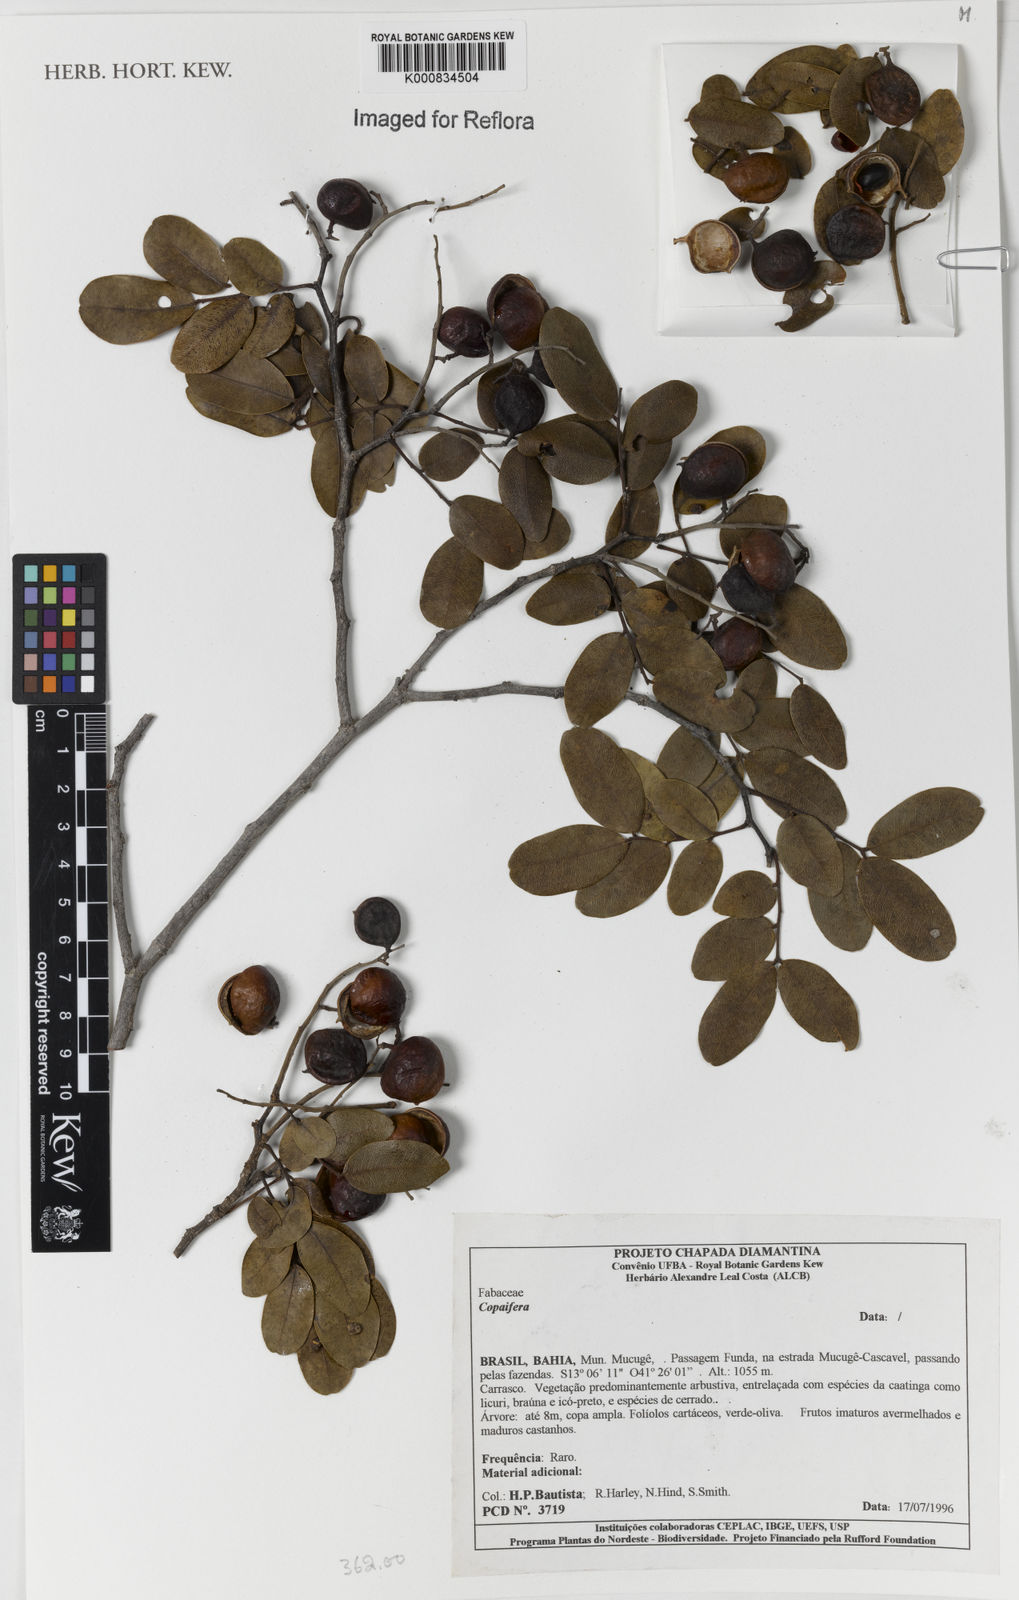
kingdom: Plantae
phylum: Tracheophyta
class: Magnoliopsida
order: Fabales
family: Fabaceae
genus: Copaifera
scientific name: Copaifera
